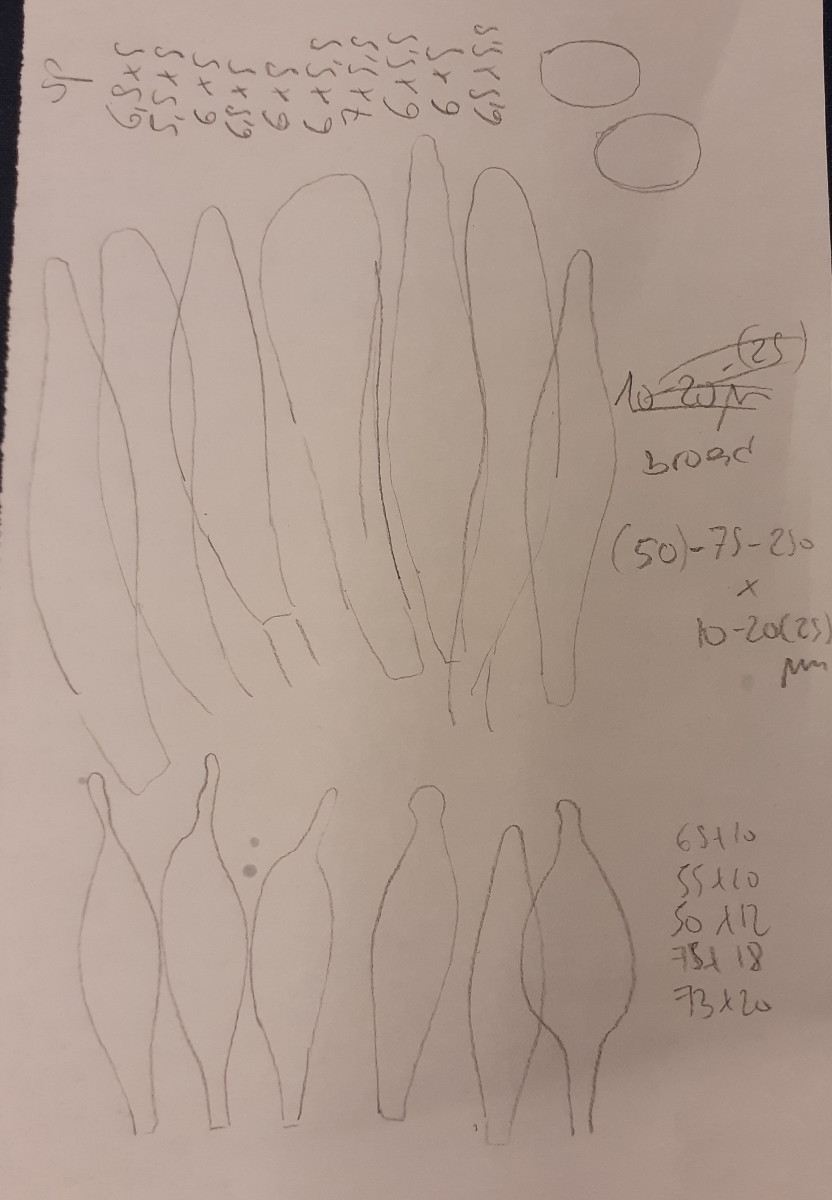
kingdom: Fungi
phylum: Basidiomycota
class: Agaricomycetes
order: Agaricales
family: Pluteaceae
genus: Pluteus
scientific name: Pluteus plautus
